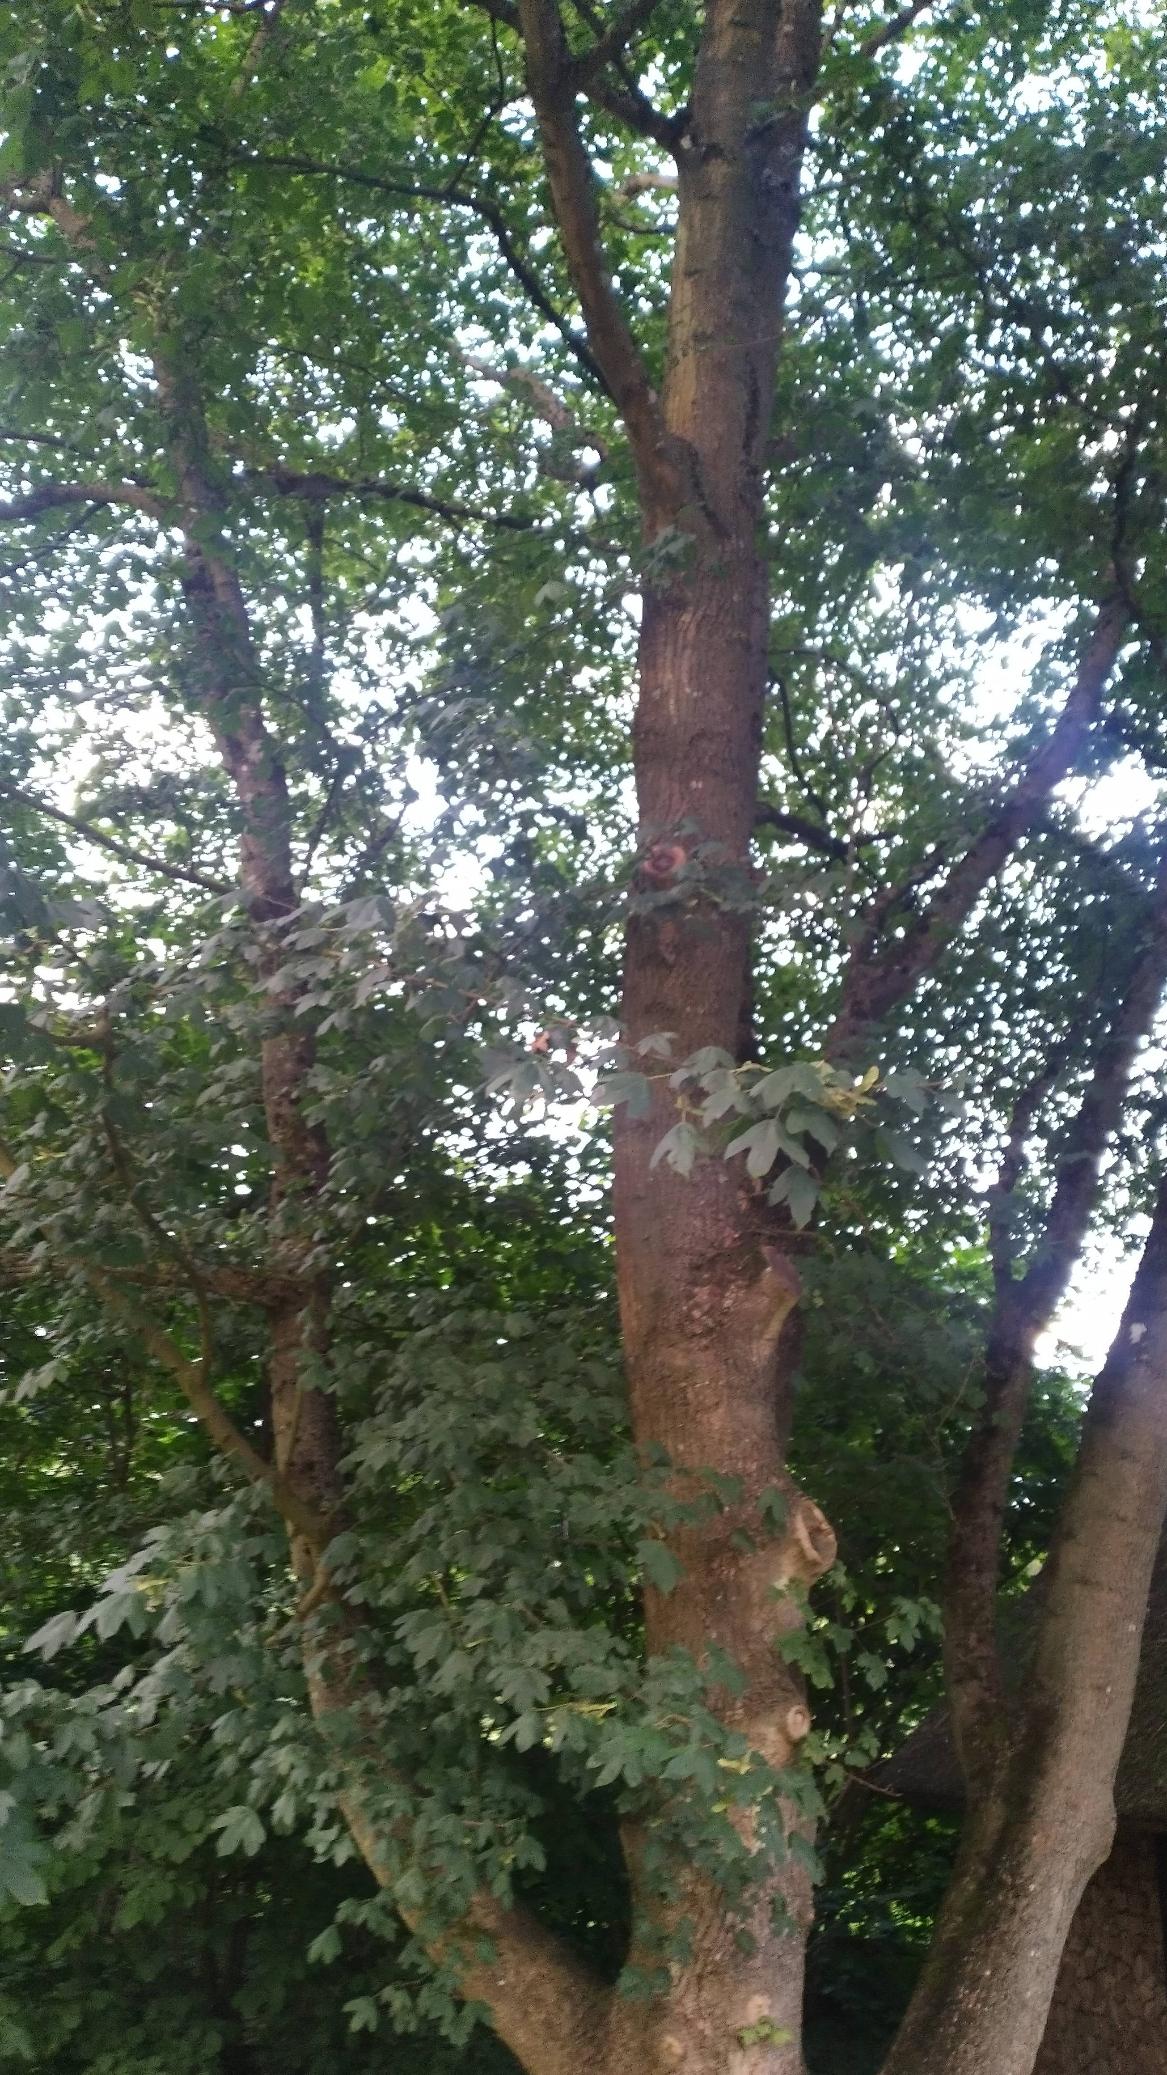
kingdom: Plantae
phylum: Tracheophyta
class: Magnoliopsida
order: Sapindales
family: Sapindaceae
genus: Acer
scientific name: Acer campestre
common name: Navr
